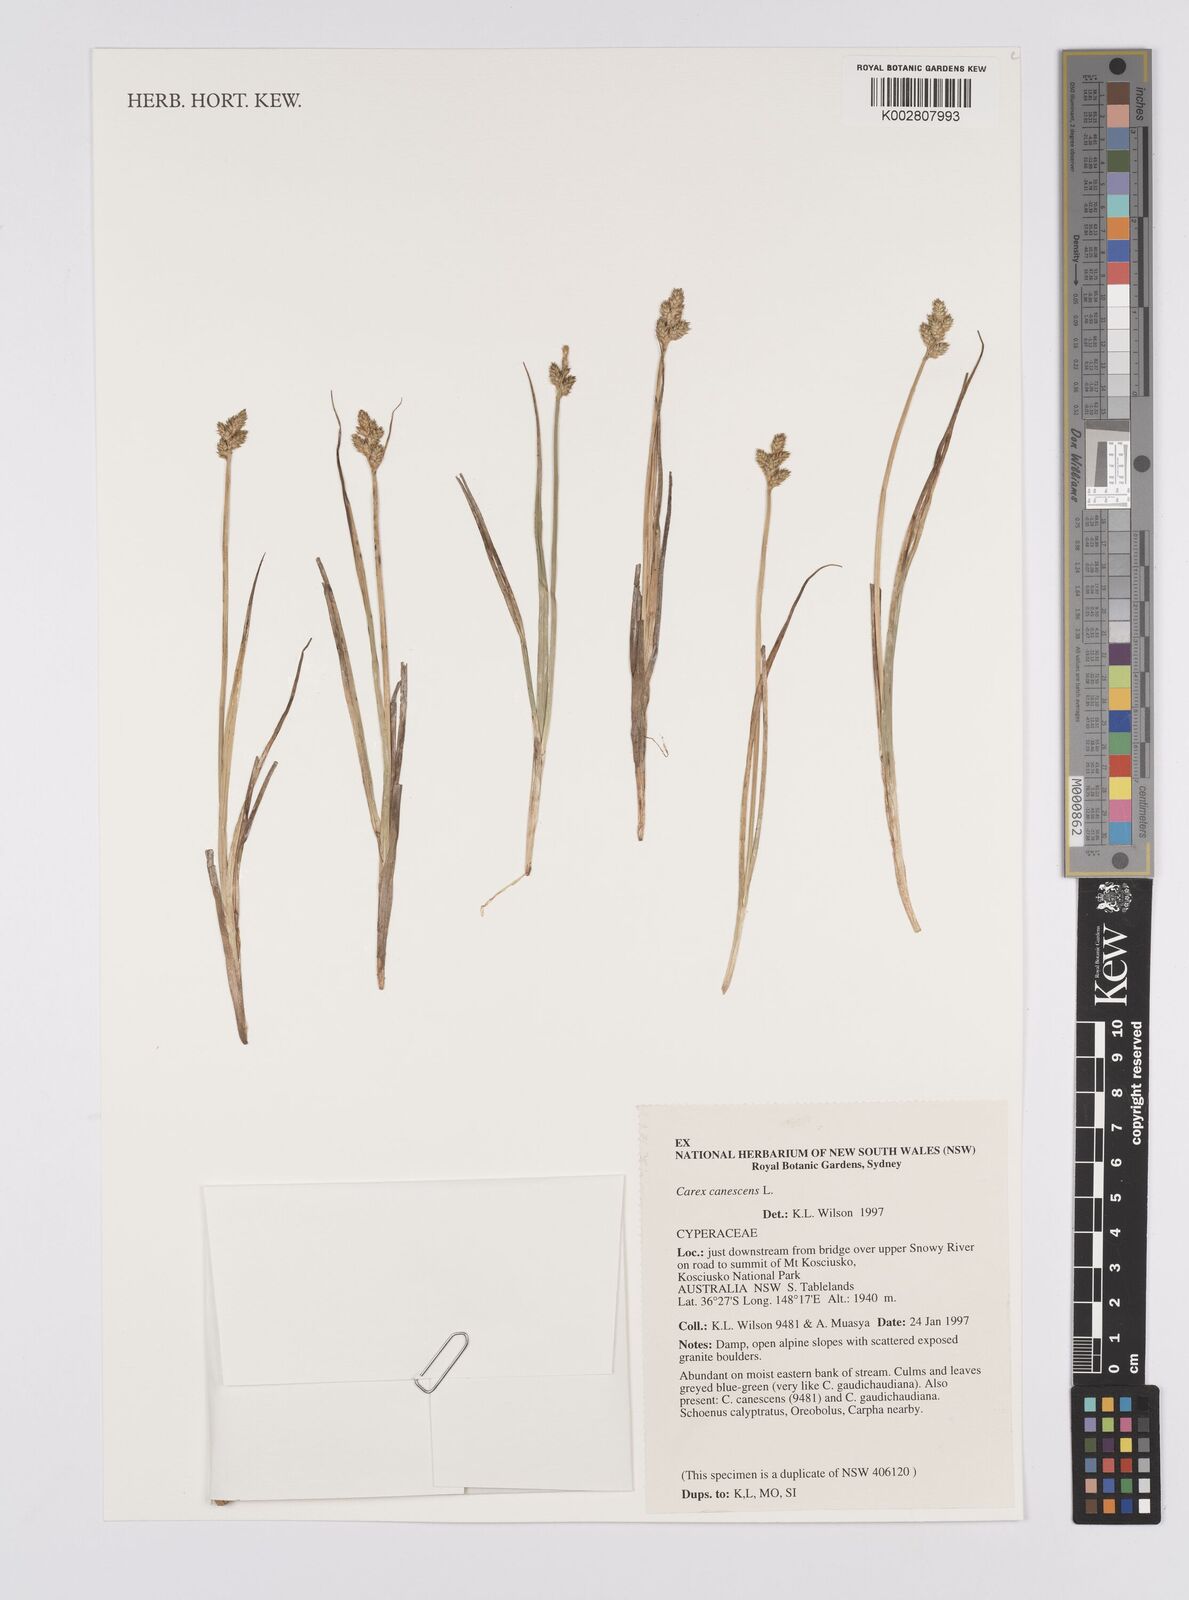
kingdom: Plantae
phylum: Tracheophyta
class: Liliopsida
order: Poales
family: Cyperaceae
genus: Carex
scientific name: Carex canescens
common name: White sedge
